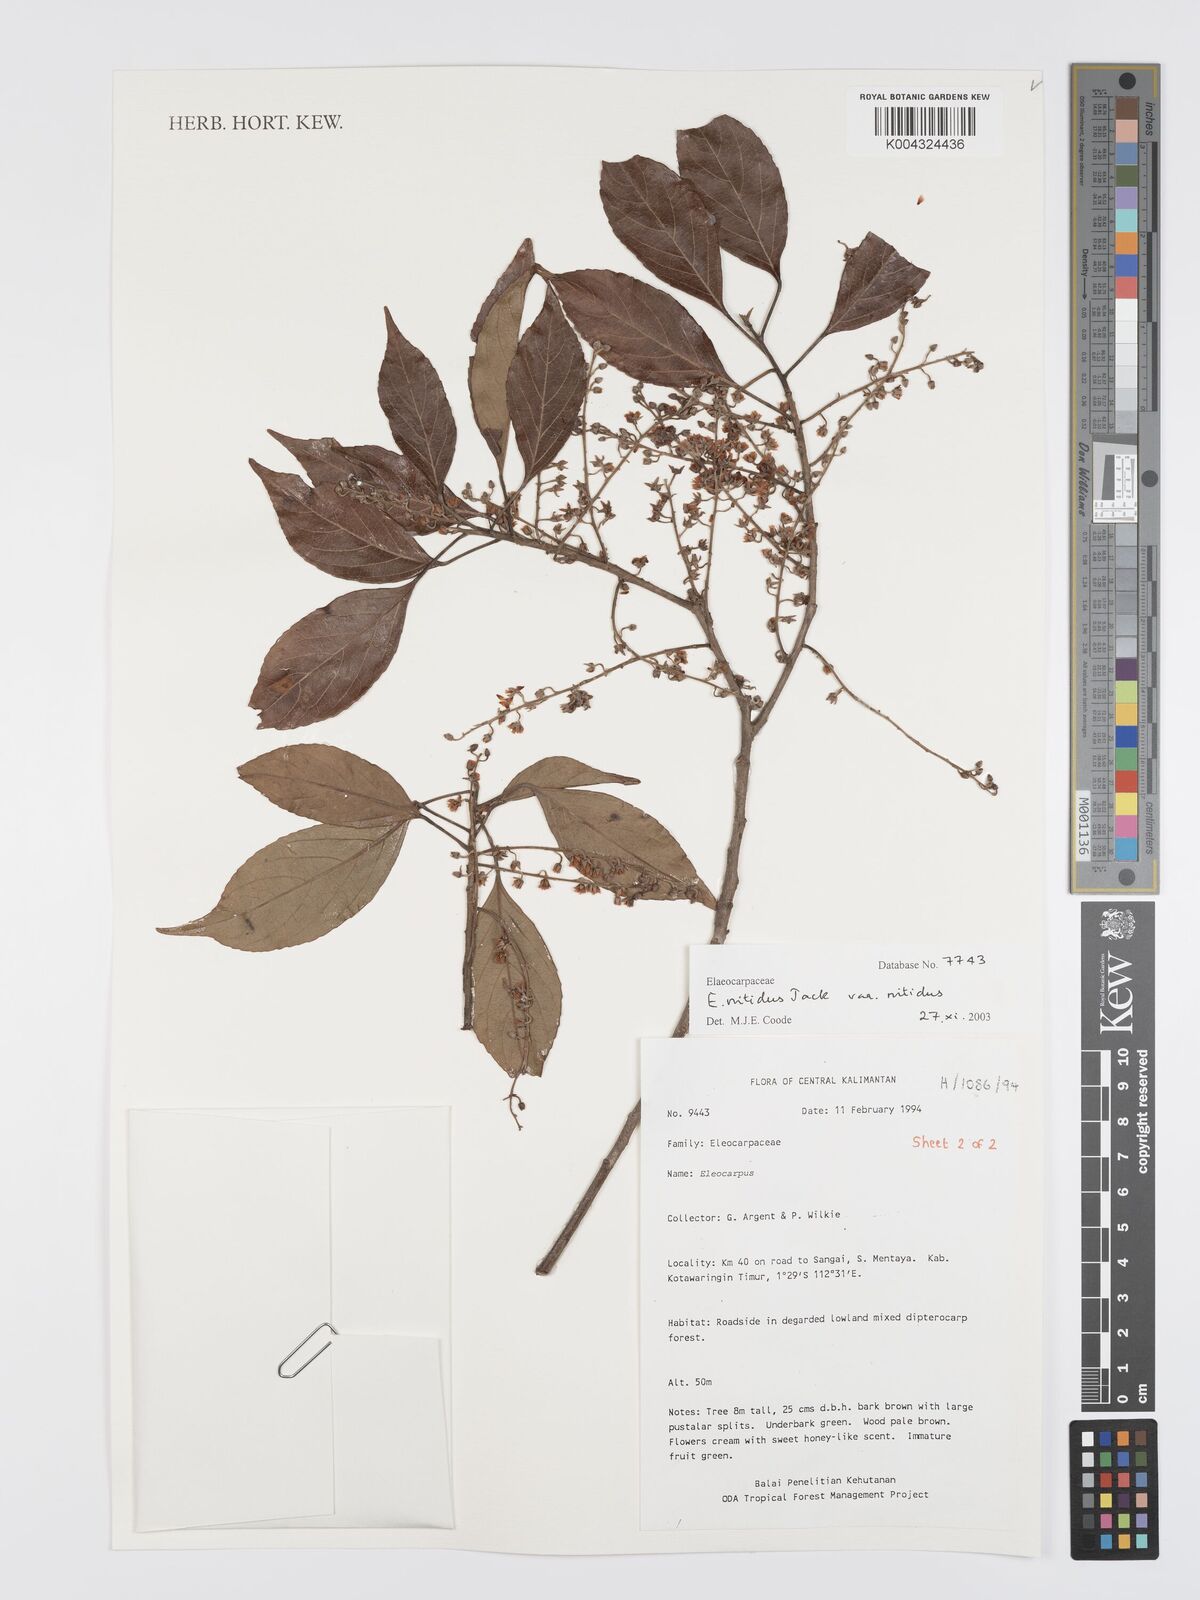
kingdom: Plantae
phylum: Tracheophyta
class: Magnoliopsida
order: Oxalidales
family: Elaeocarpaceae
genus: Elaeocarpus
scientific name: Elaeocarpus nitidus
